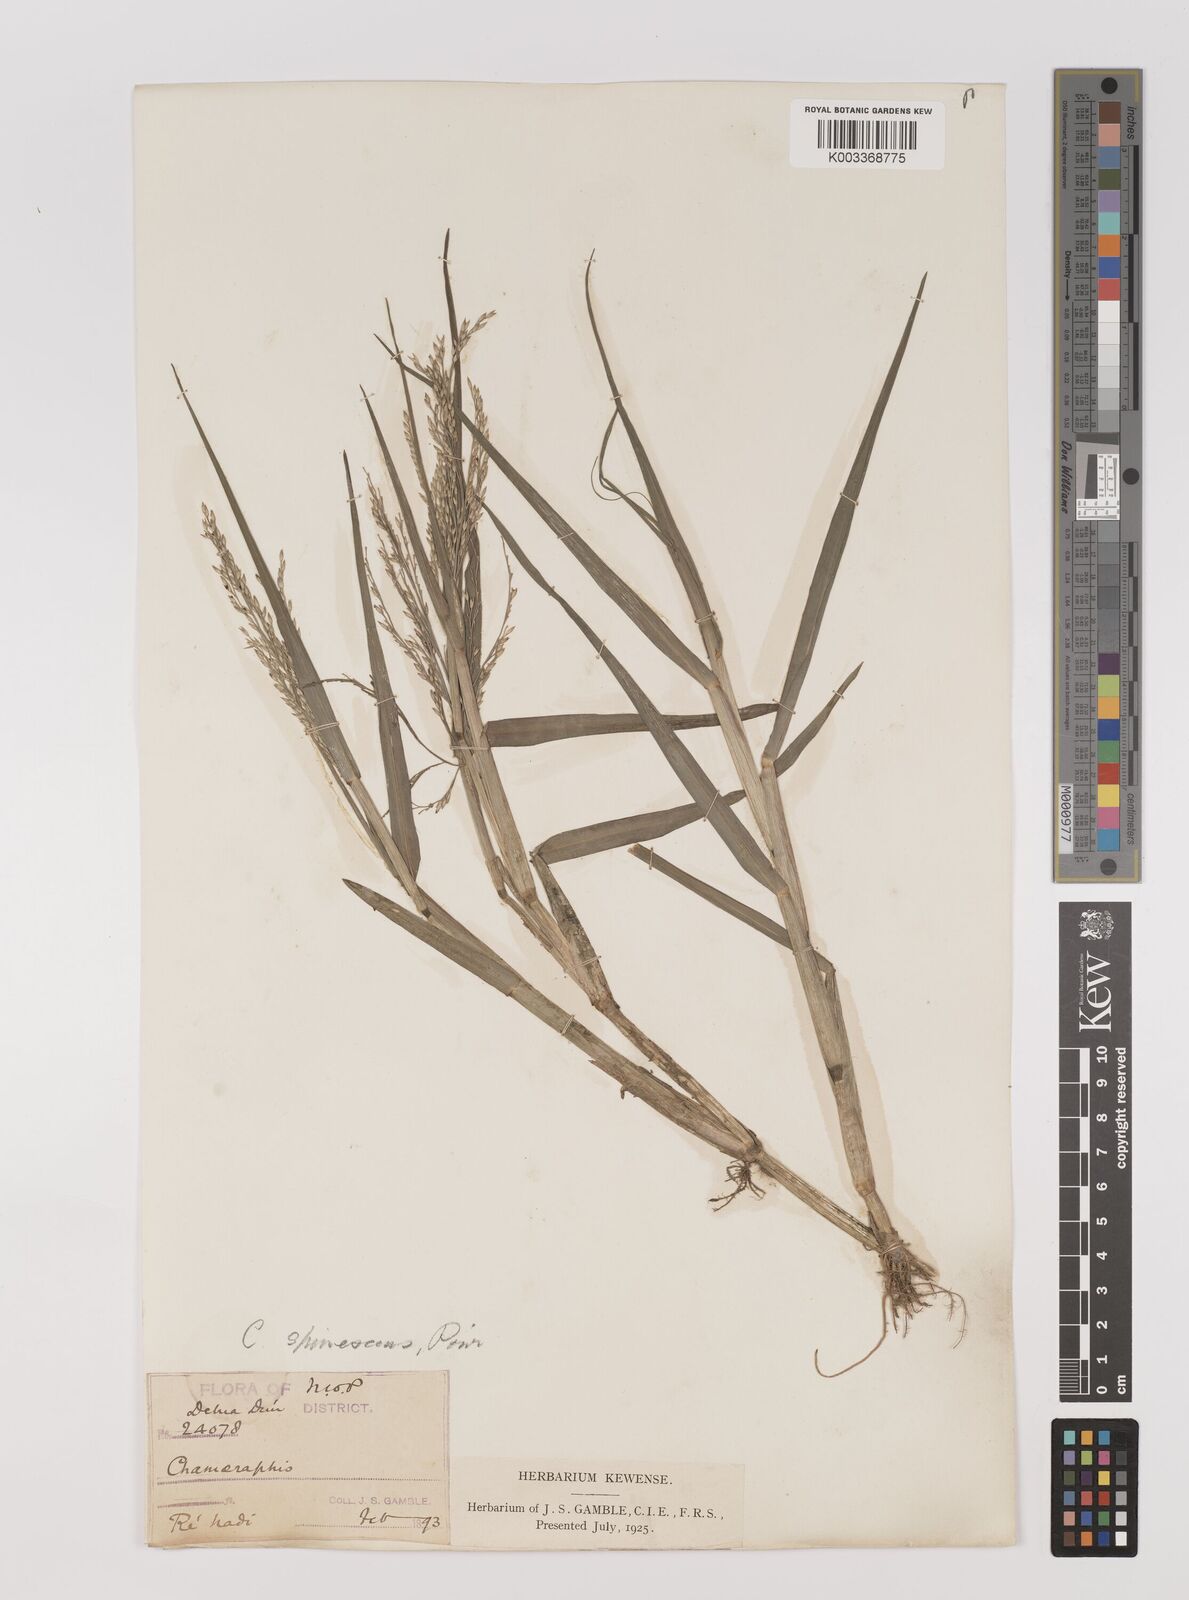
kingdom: Plantae
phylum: Tracheophyta
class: Liliopsida
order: Poales
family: Poaceae
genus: Louisiella
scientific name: Louisiella paludosa
